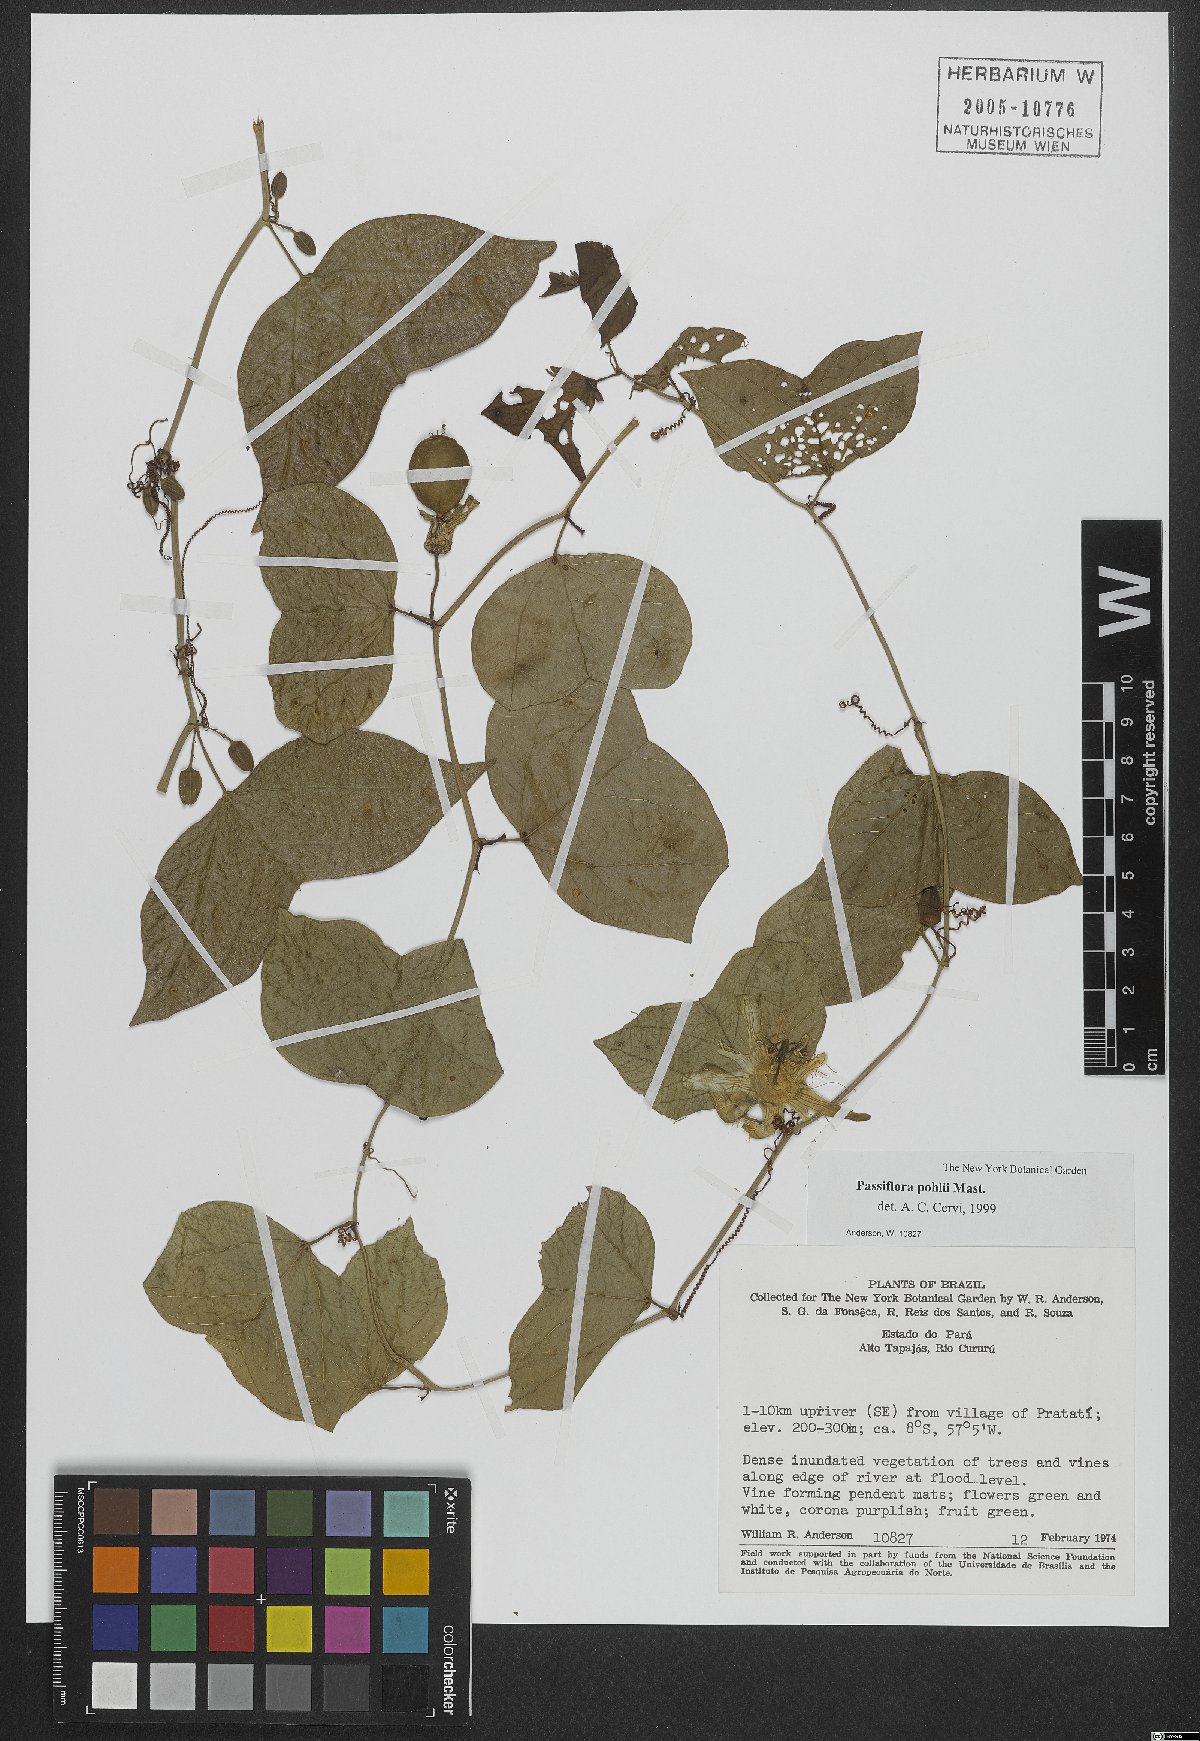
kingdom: Plantae
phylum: Tracheophyta
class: Magnoliopsida
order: Malpighiales
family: Passifloraceae
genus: Passiflora
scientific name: Passiflora pohlii
